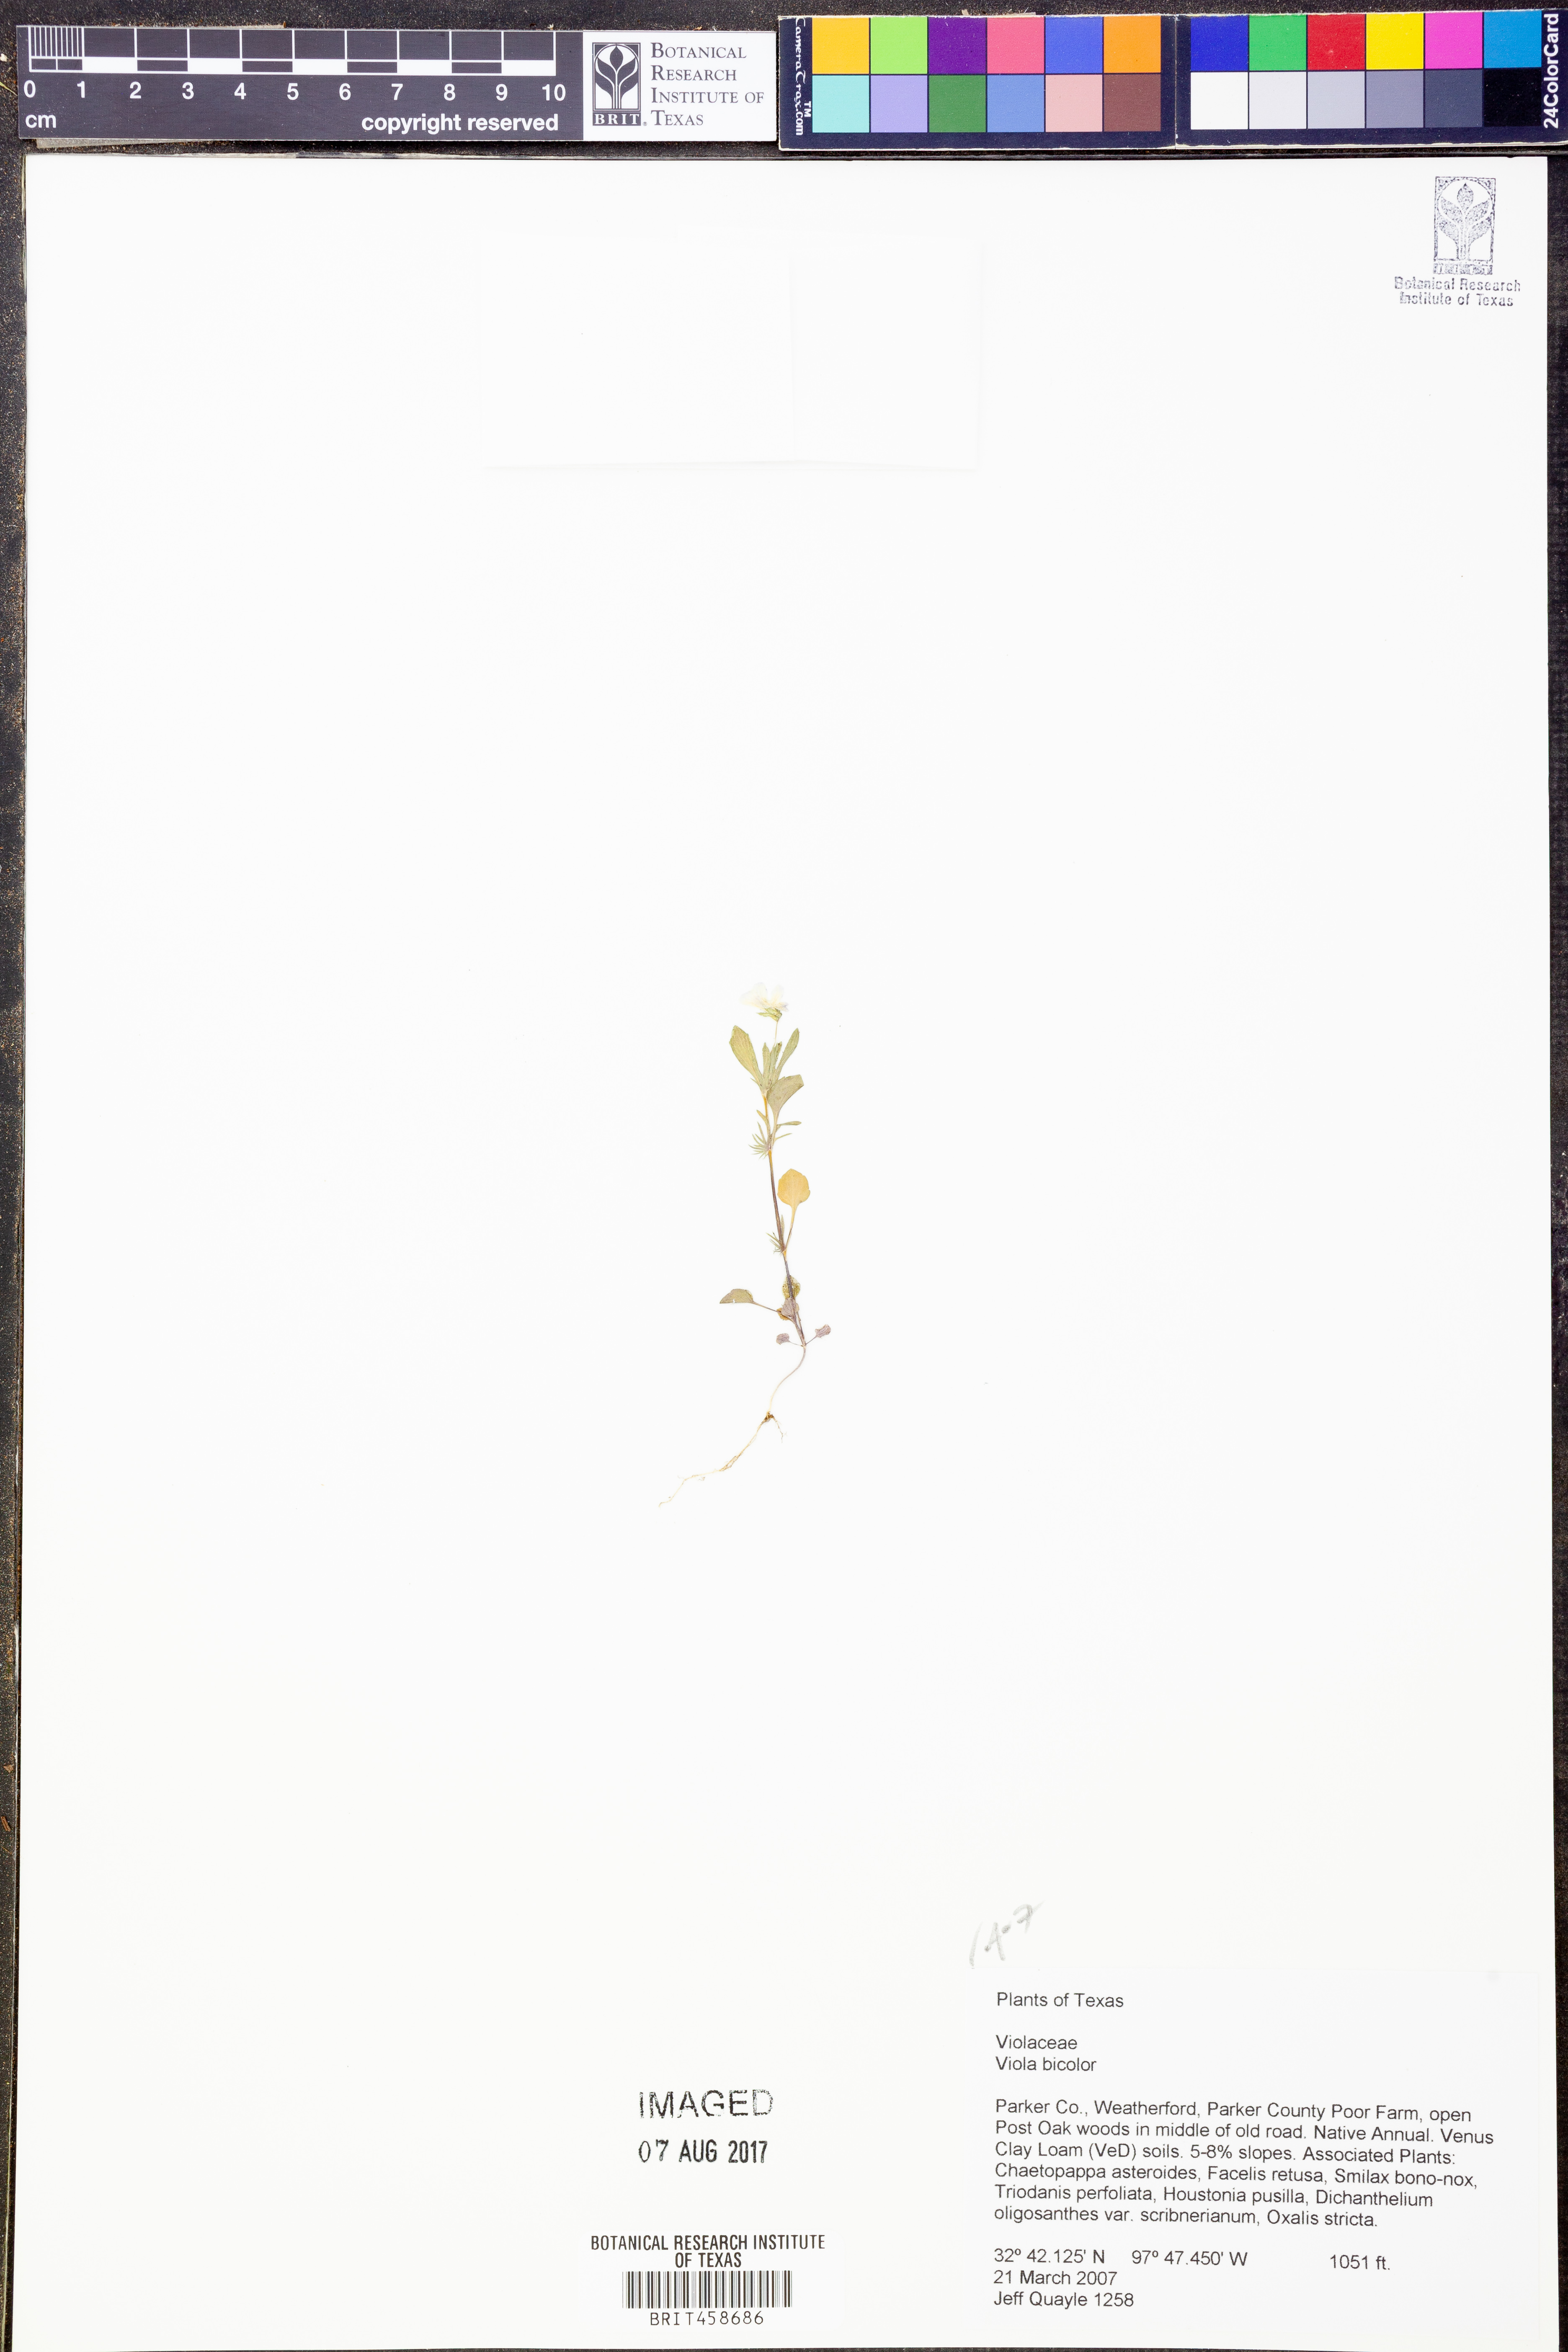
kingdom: Plantae
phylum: Tracheophyta
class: Magnoliopsida
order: Malpighiales
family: Violaceae
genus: Viola
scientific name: Viola rafinesquei
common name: American field pansy
